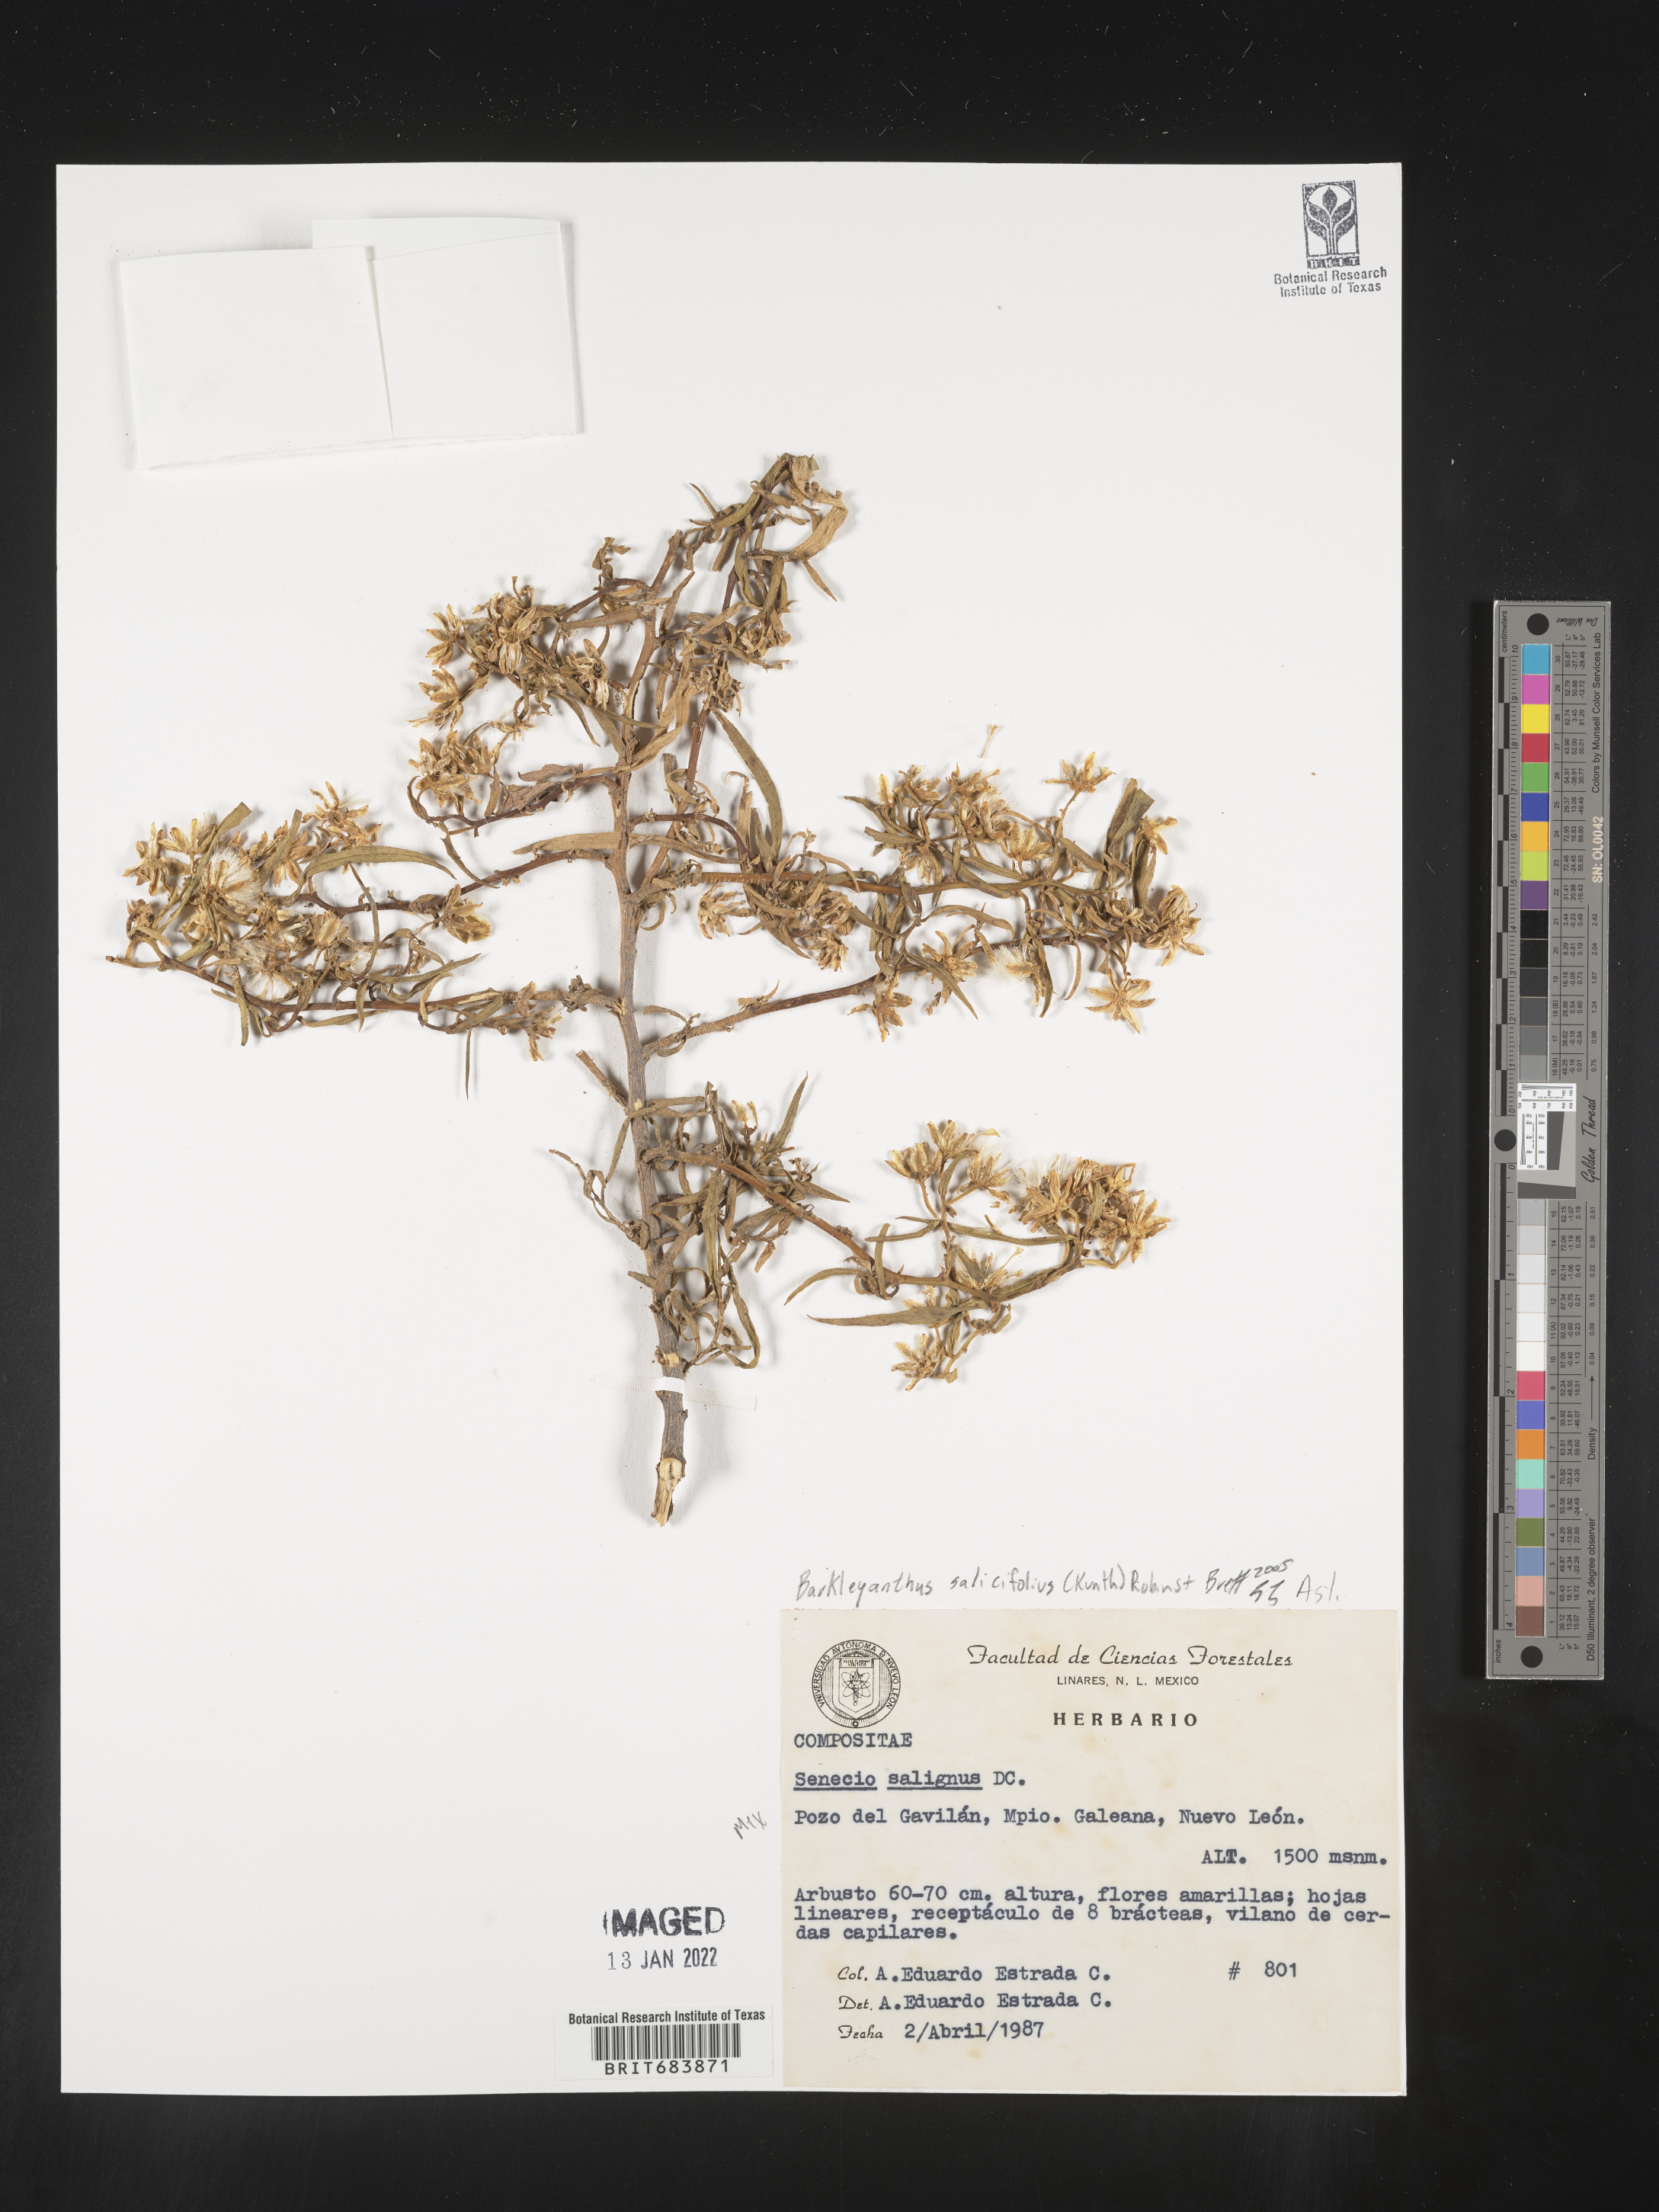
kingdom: Plantae
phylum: Tracheophyta
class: Magnoliopsida
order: Asterales
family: Asteraceae
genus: Barkleyanthus
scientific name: Barkleyanthus
